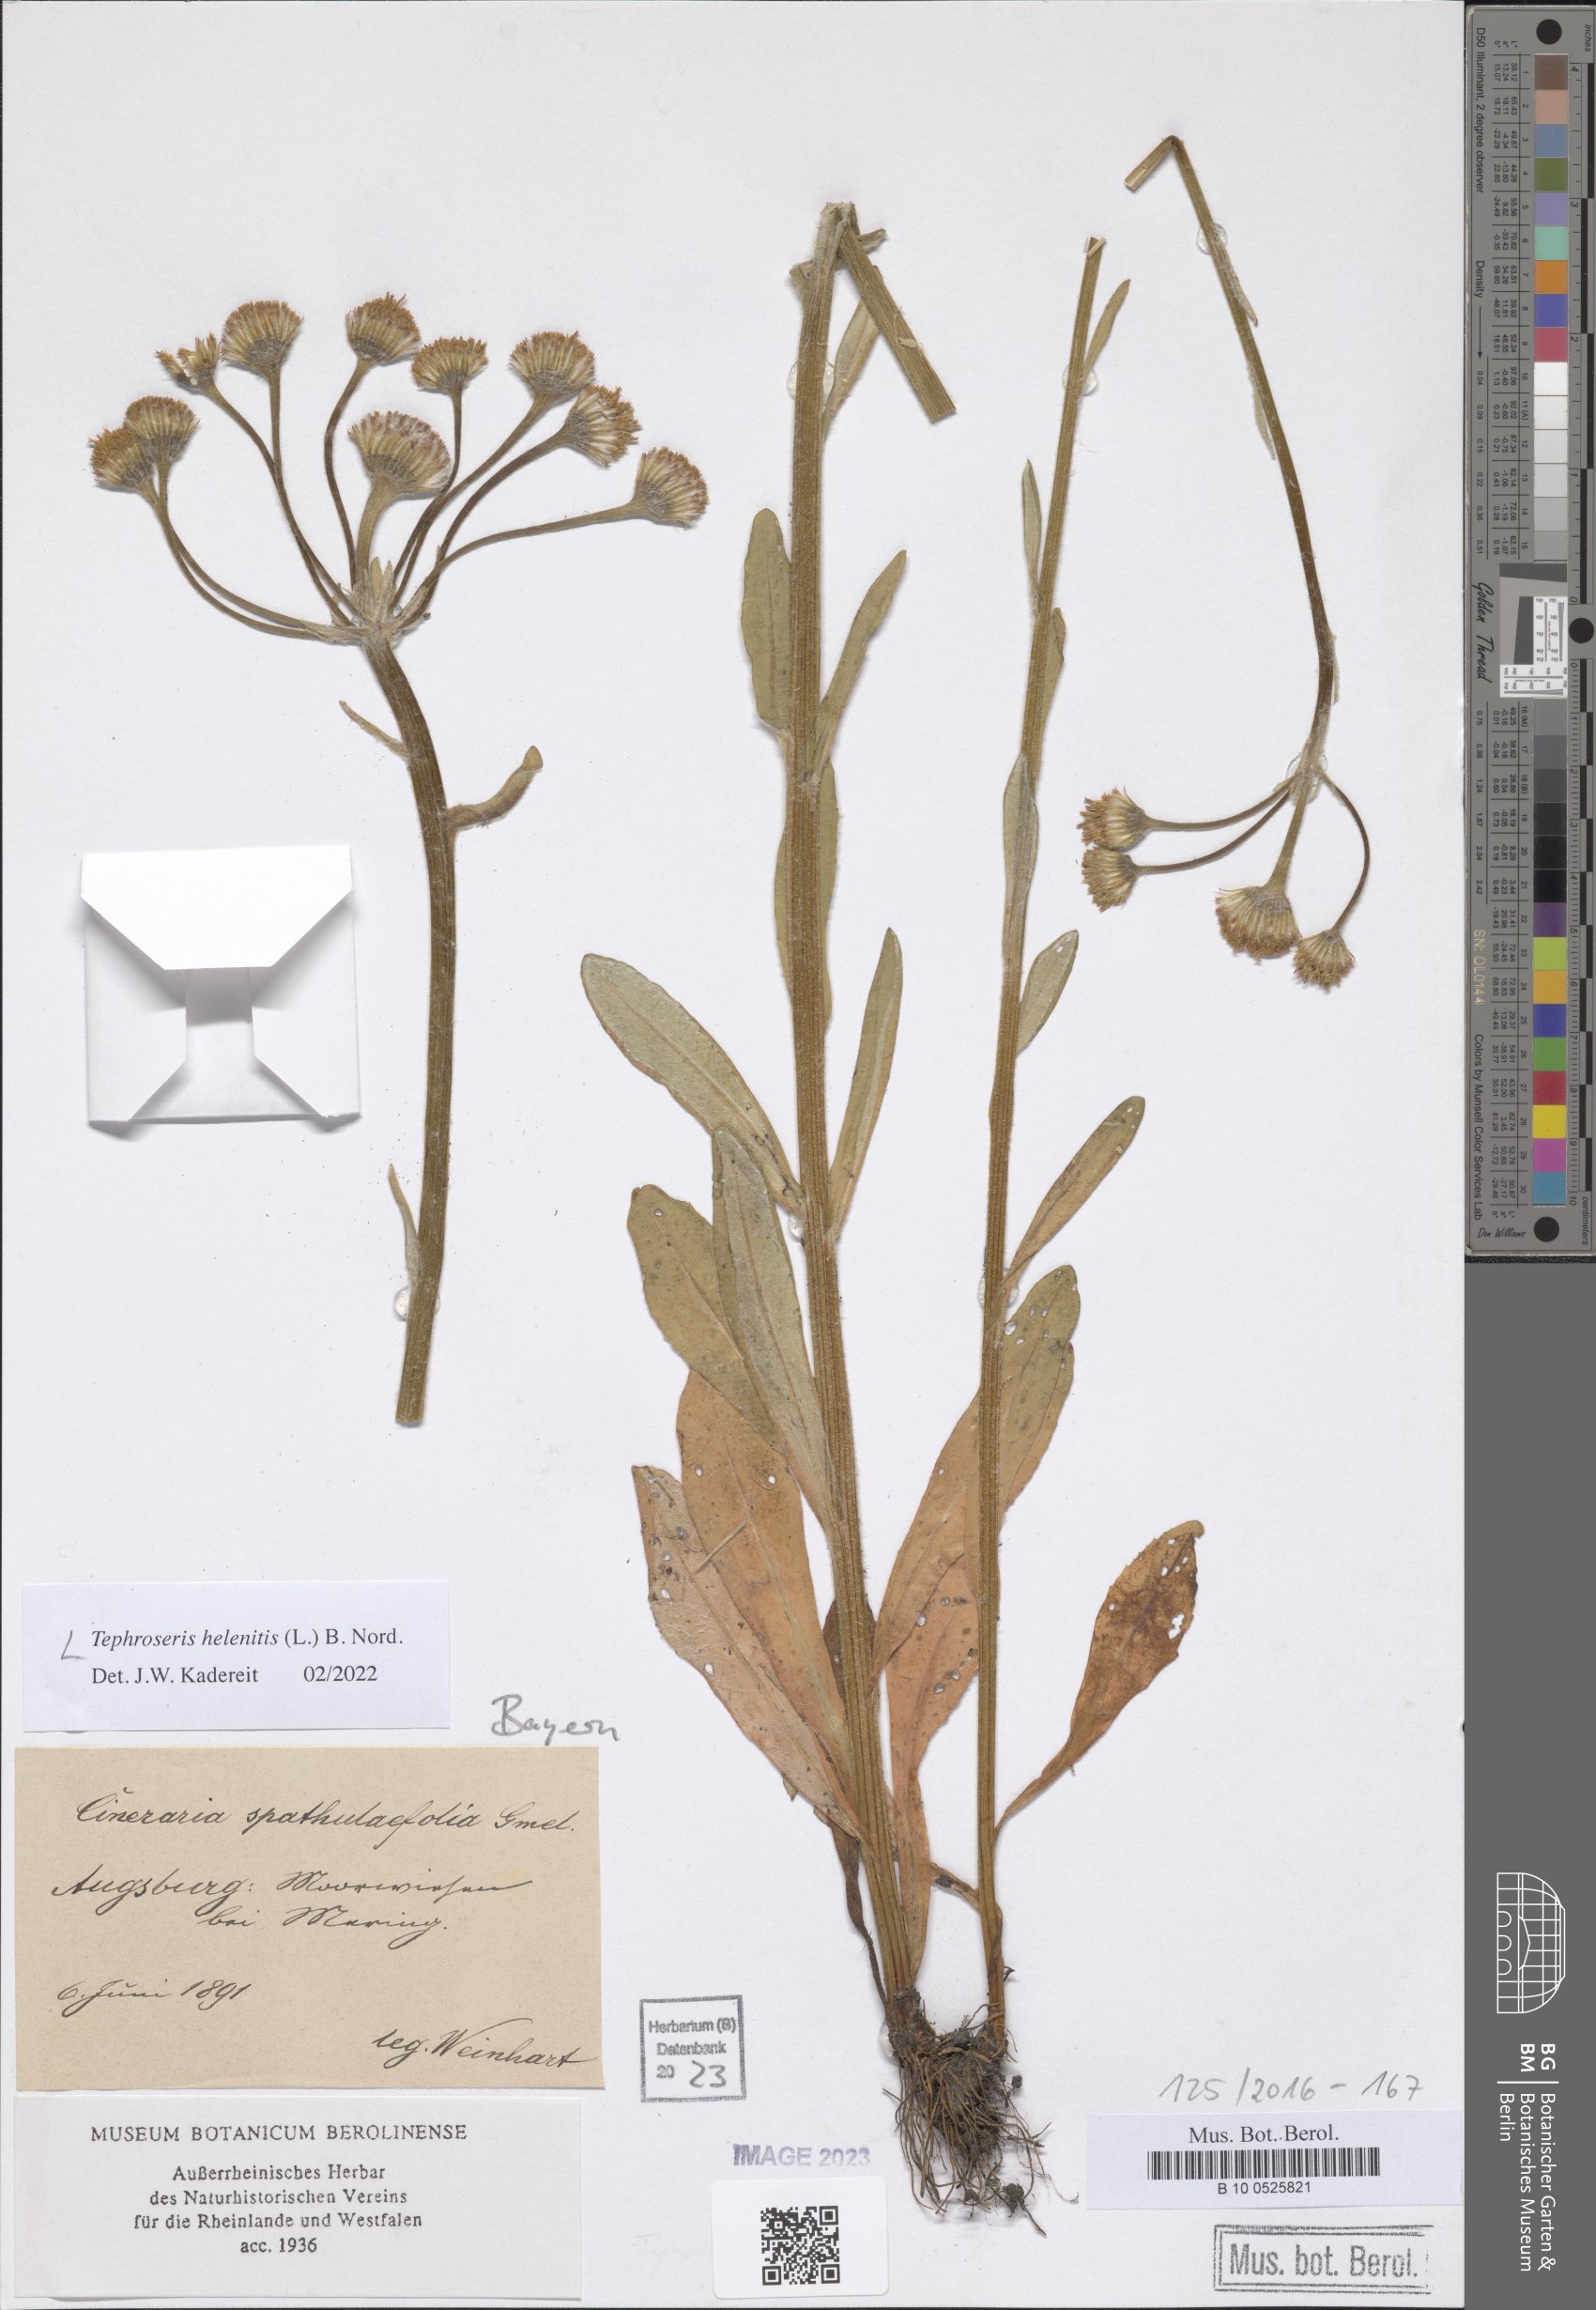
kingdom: Plantae
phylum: Tracheophyta
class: Magnoliopsida
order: Asterales
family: Asteraceae
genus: Tephroseris
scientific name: Tephroseris helenitis
